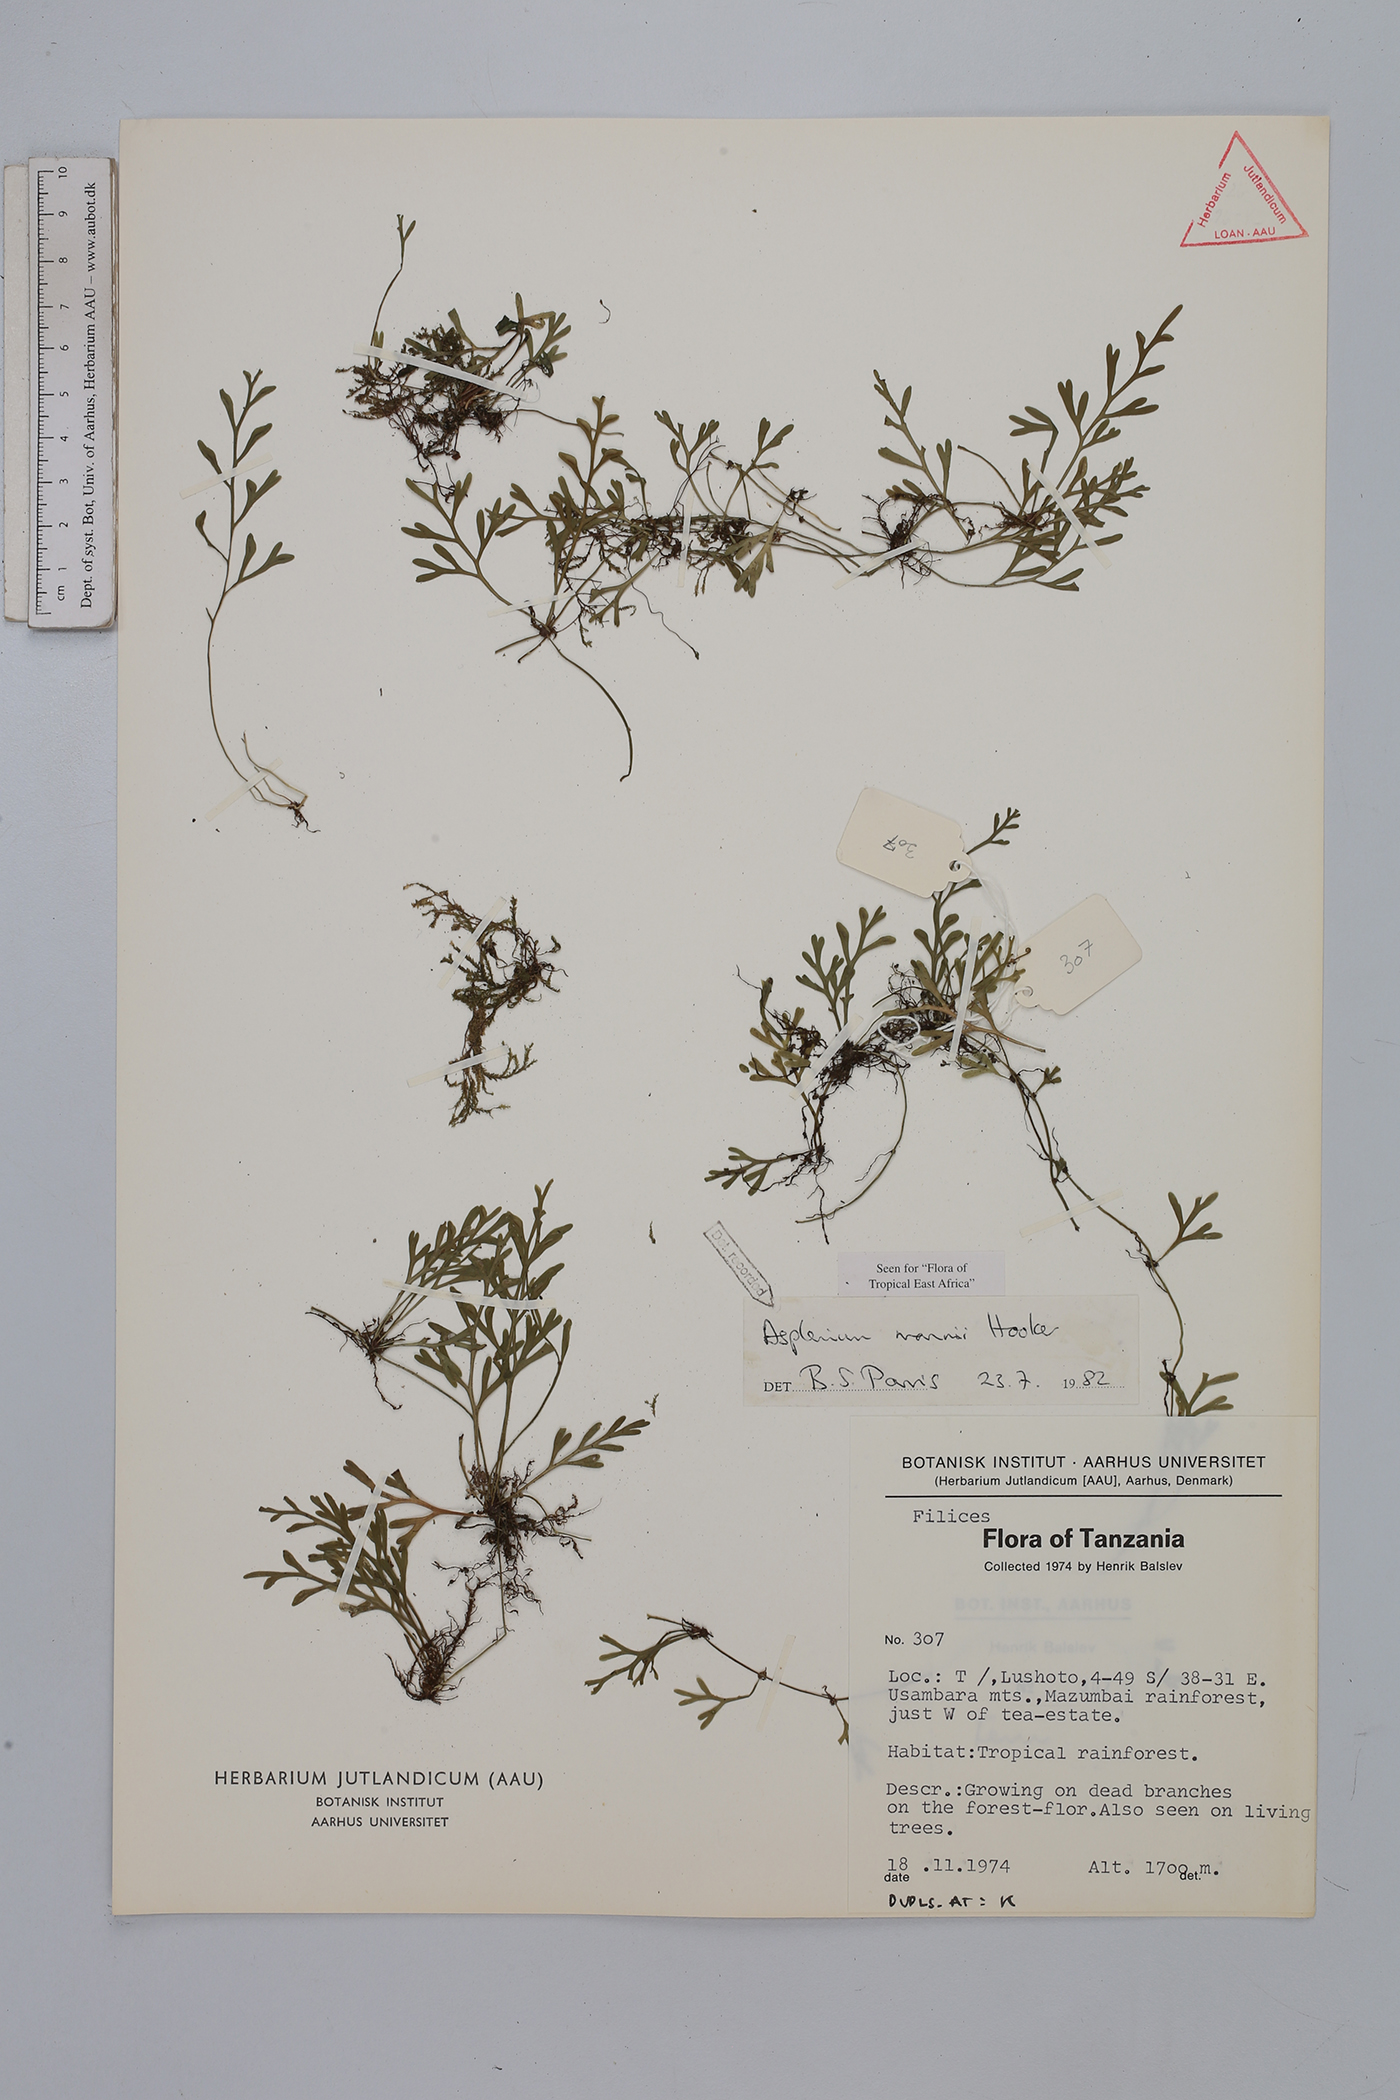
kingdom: Plantae
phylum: Tracheophyta
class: Polypodiopsida
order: Polypodiales
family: Aspleniaceae
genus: Asplenium
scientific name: Asplenium mannii
